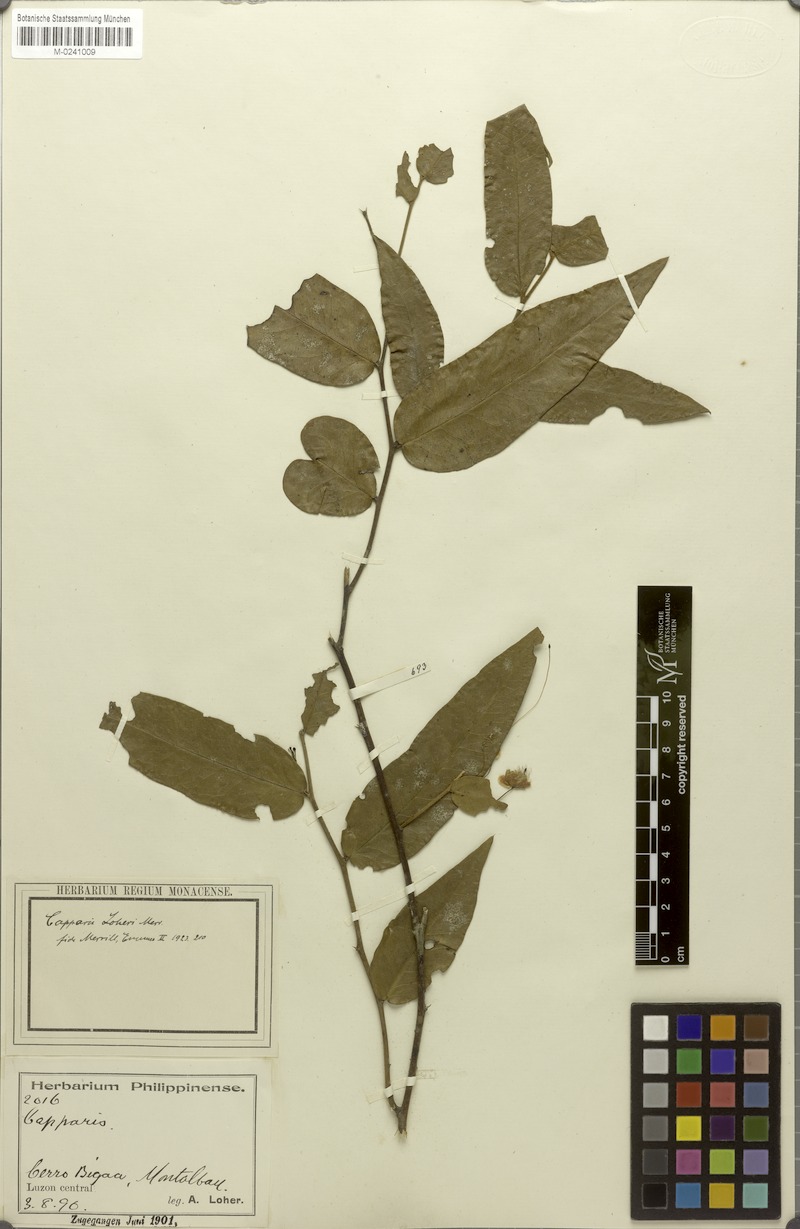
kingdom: Plantae
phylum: Tracheophyta
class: Magnoliopsida
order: Brassicales
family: Capparaceae
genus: Capparis
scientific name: Capparis lobbiana
